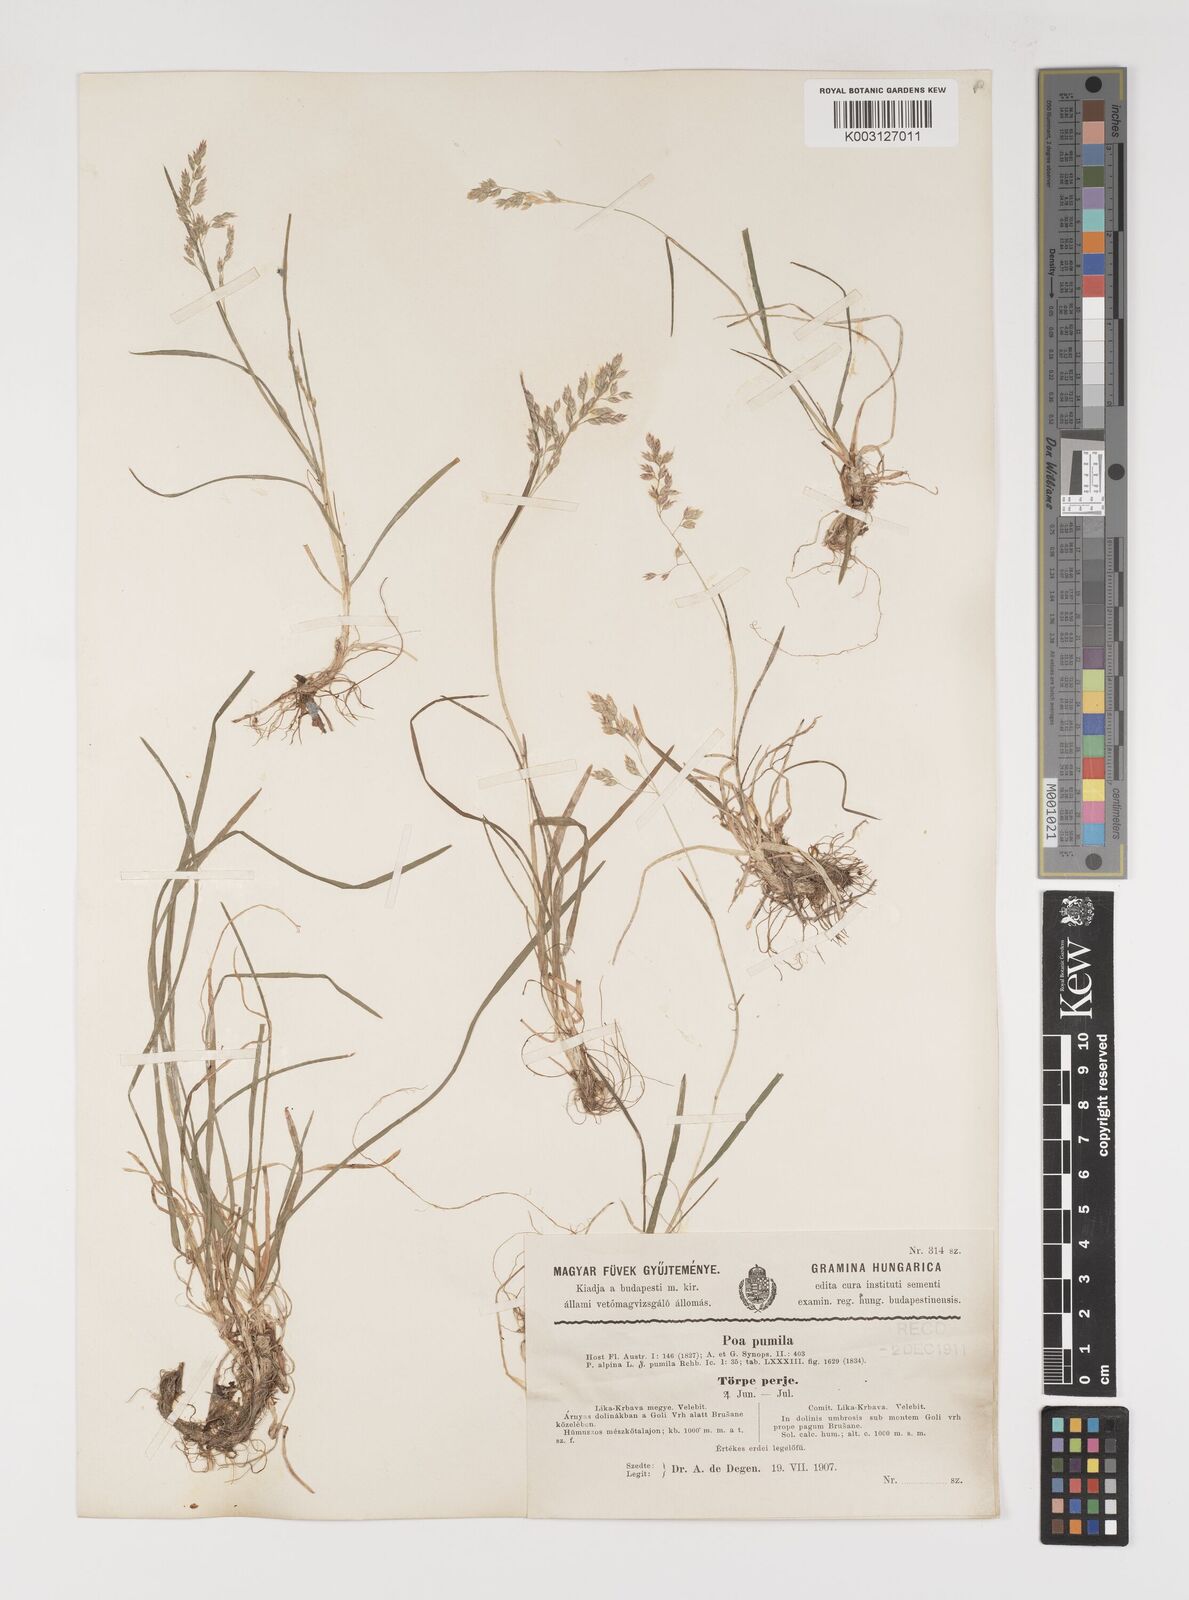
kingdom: Plantae
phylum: Tracheophyta
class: Liliopsida
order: Poales
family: Poaceae
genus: Poa
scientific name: Poa pumila
